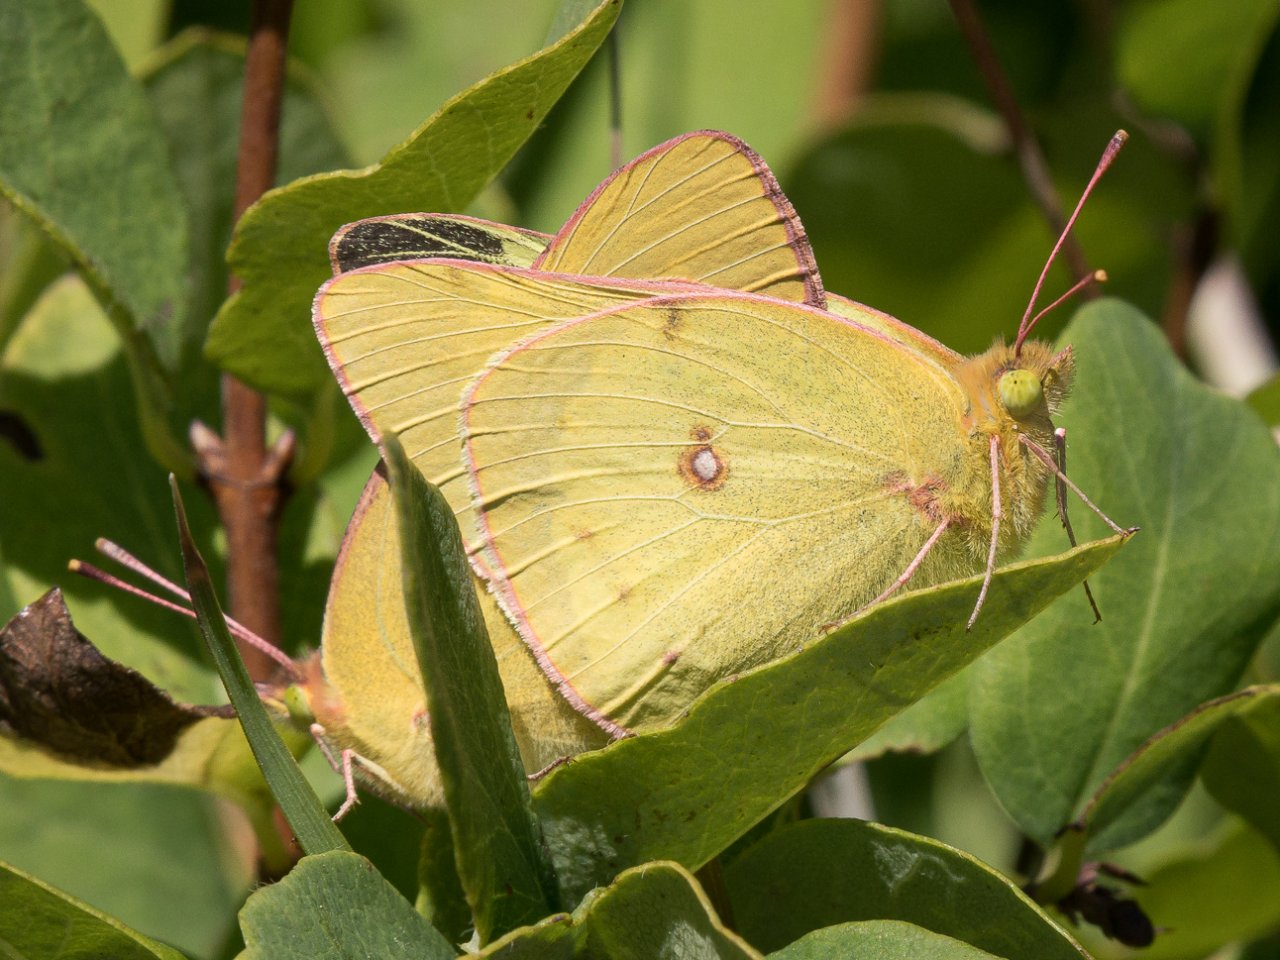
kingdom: Animalia
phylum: Arthropoda
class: Insecta
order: Lepidoptera
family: Pieridae
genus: Colias
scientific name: Colias philodice
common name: Clouded Sulphur
